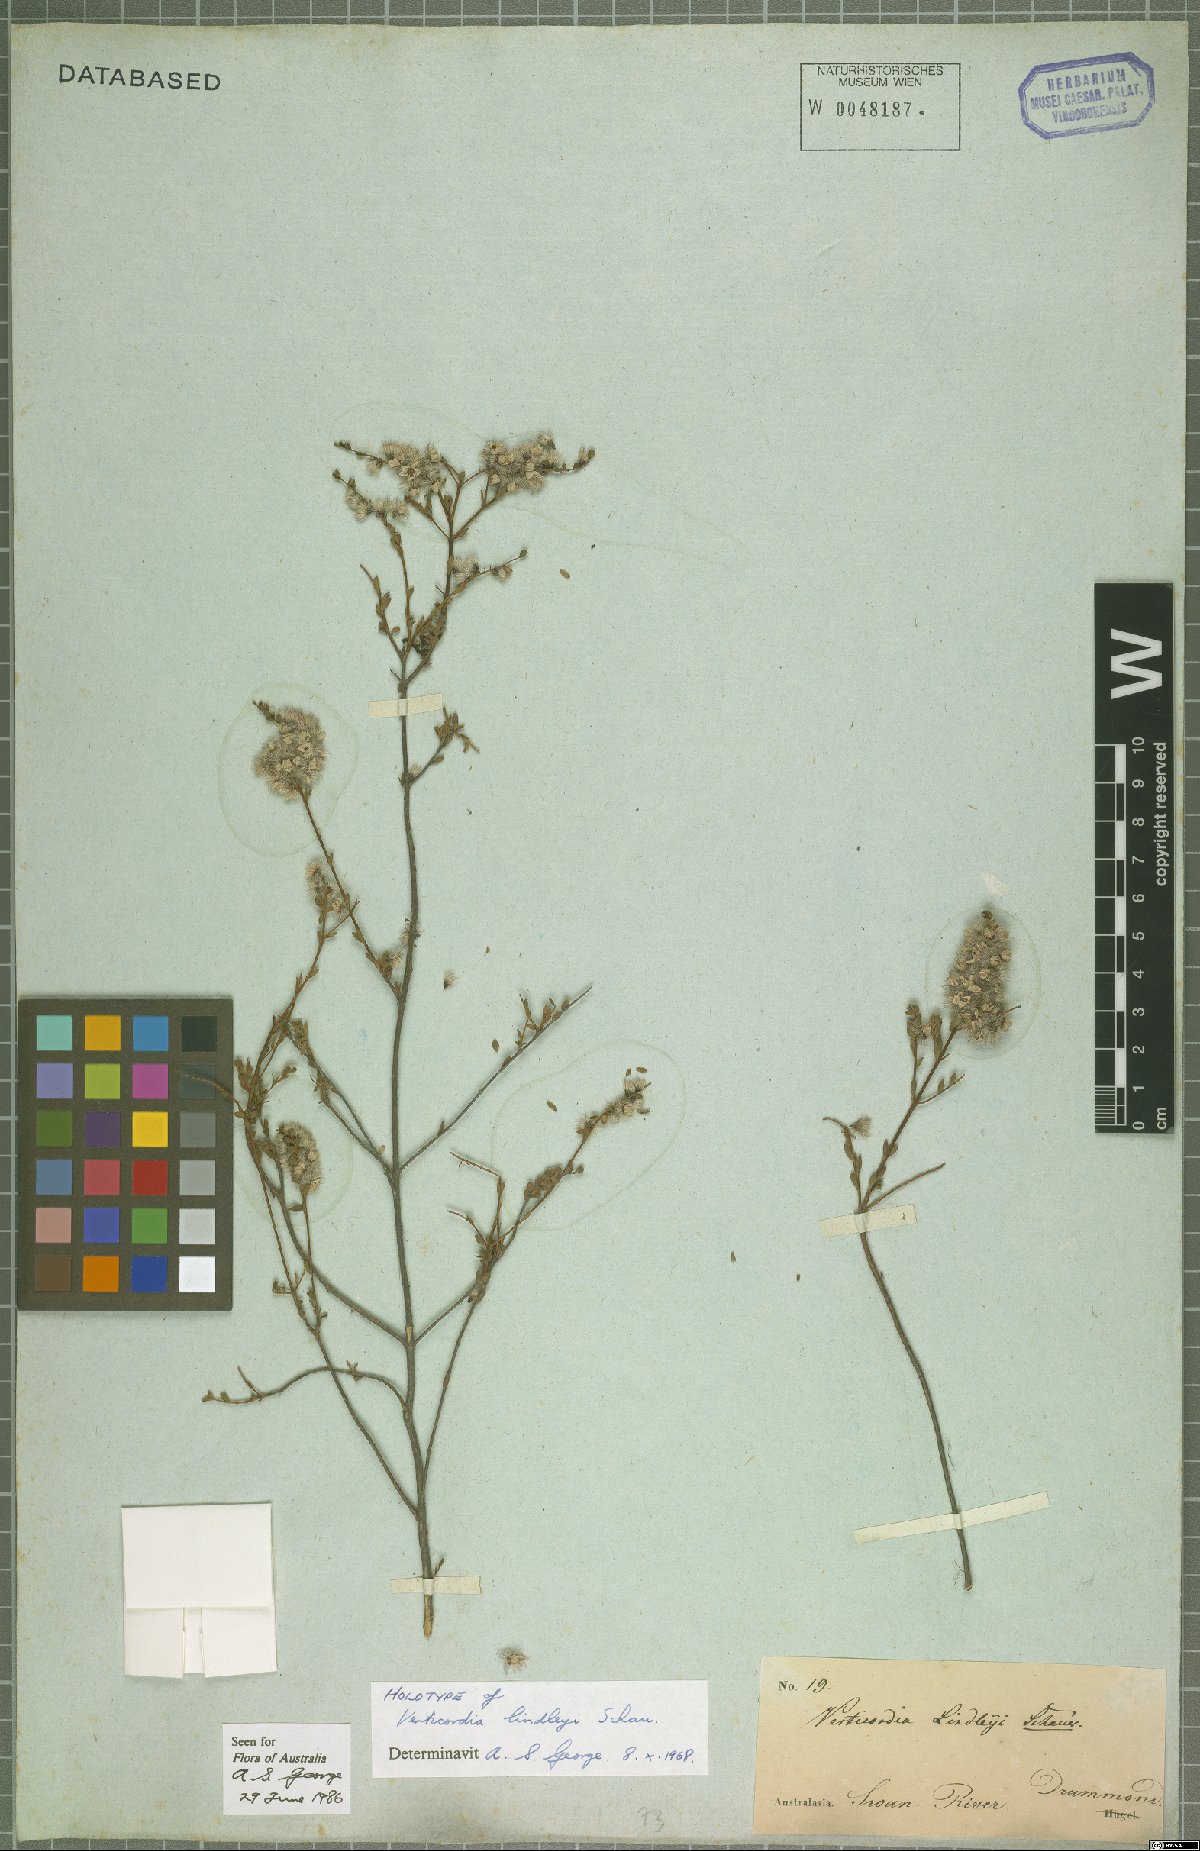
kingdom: Plantae
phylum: Tracheophyta
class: Magnoliopsida
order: Myrtales
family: Myrtaceae
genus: Verticordia
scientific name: Verticordia lindleyi
